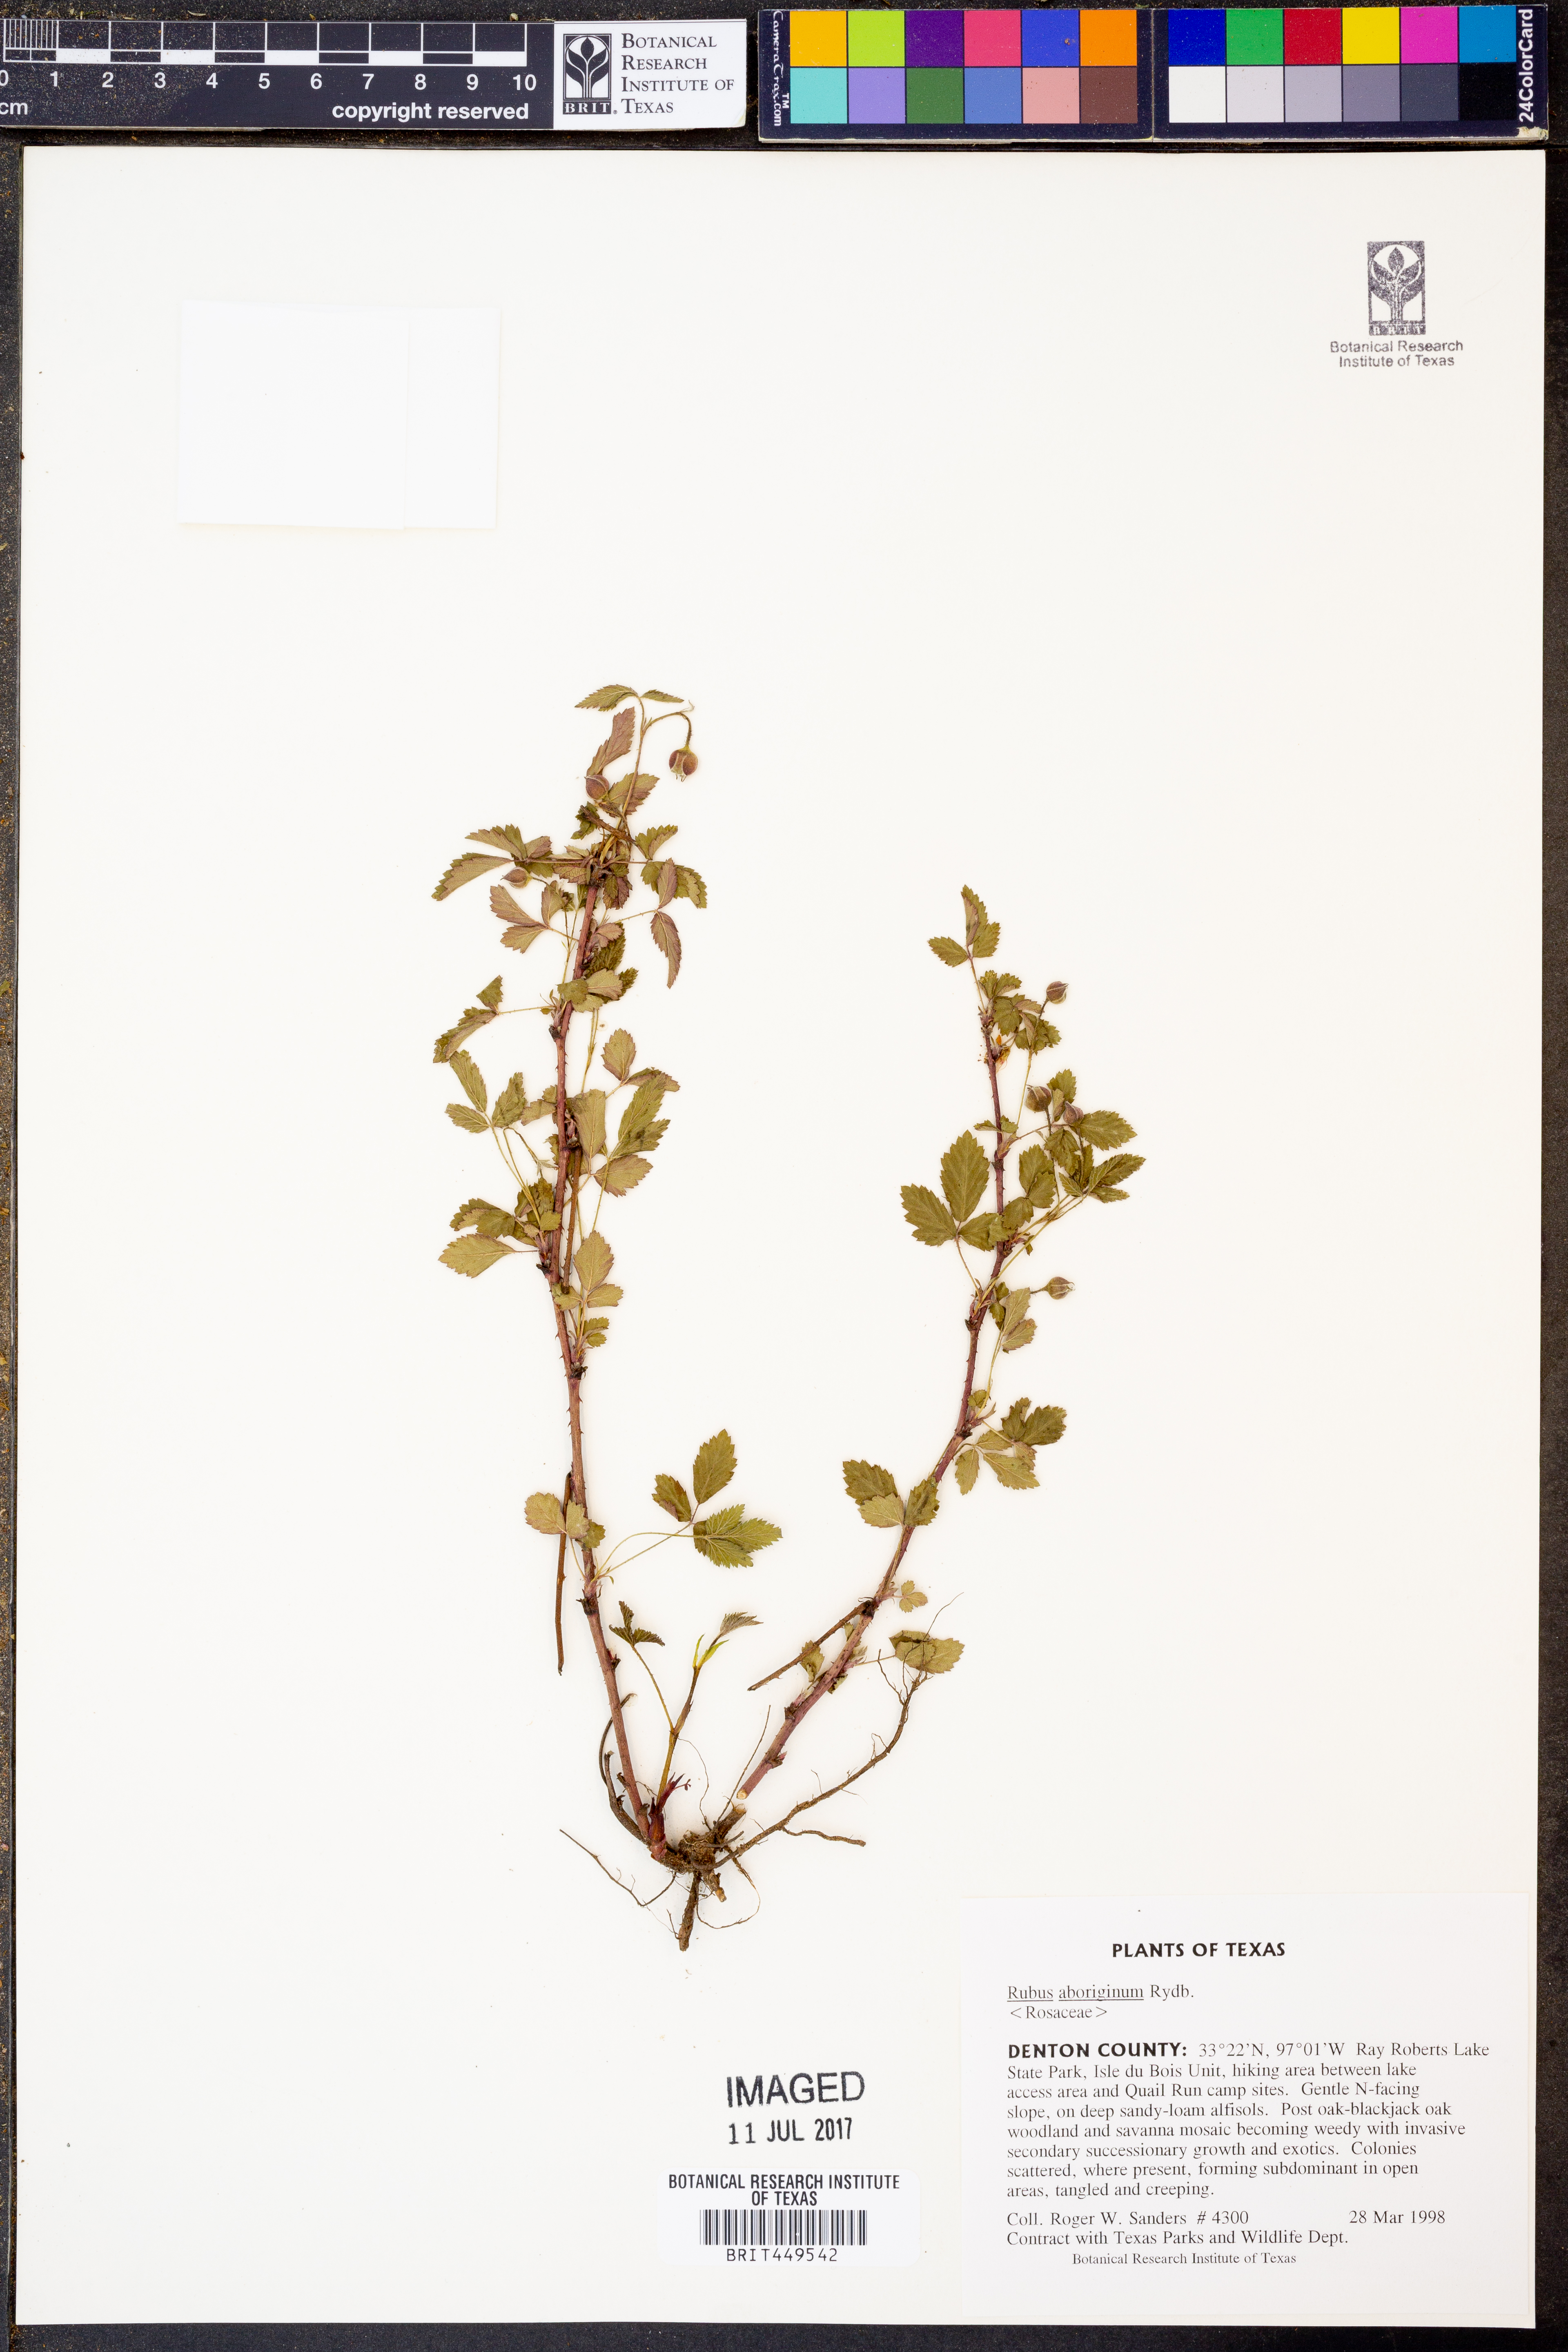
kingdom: Plantae
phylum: Tracheophyta
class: Magnoliopsida
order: Rosales
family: Rosaceae
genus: Rubus
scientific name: Rubus aboriginum
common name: Mayes dewberry
